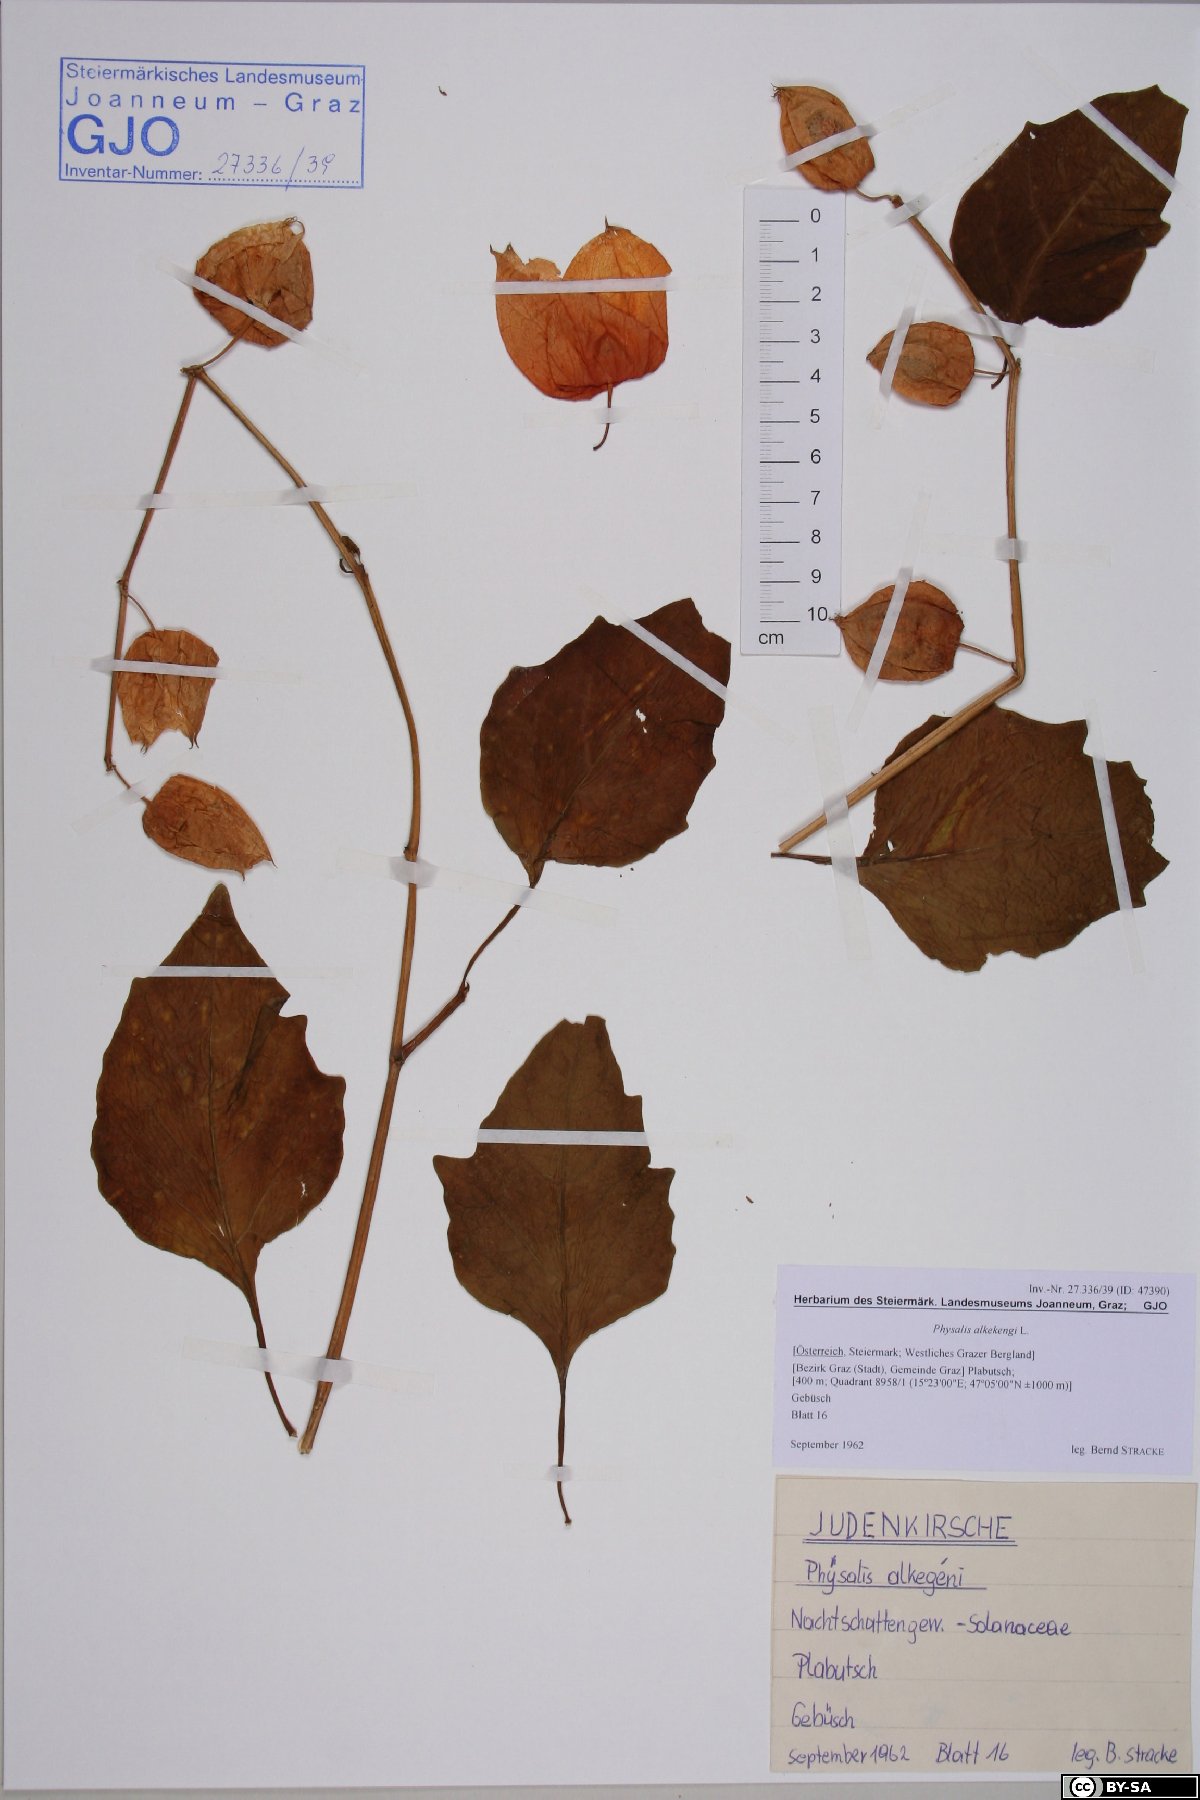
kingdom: Plantae
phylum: Tracheophyta
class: Magnoliopsida
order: Solanales
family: Solanaceae
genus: Alkekengi
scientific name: Alkekengi officinarum
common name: Japanese-lantern
